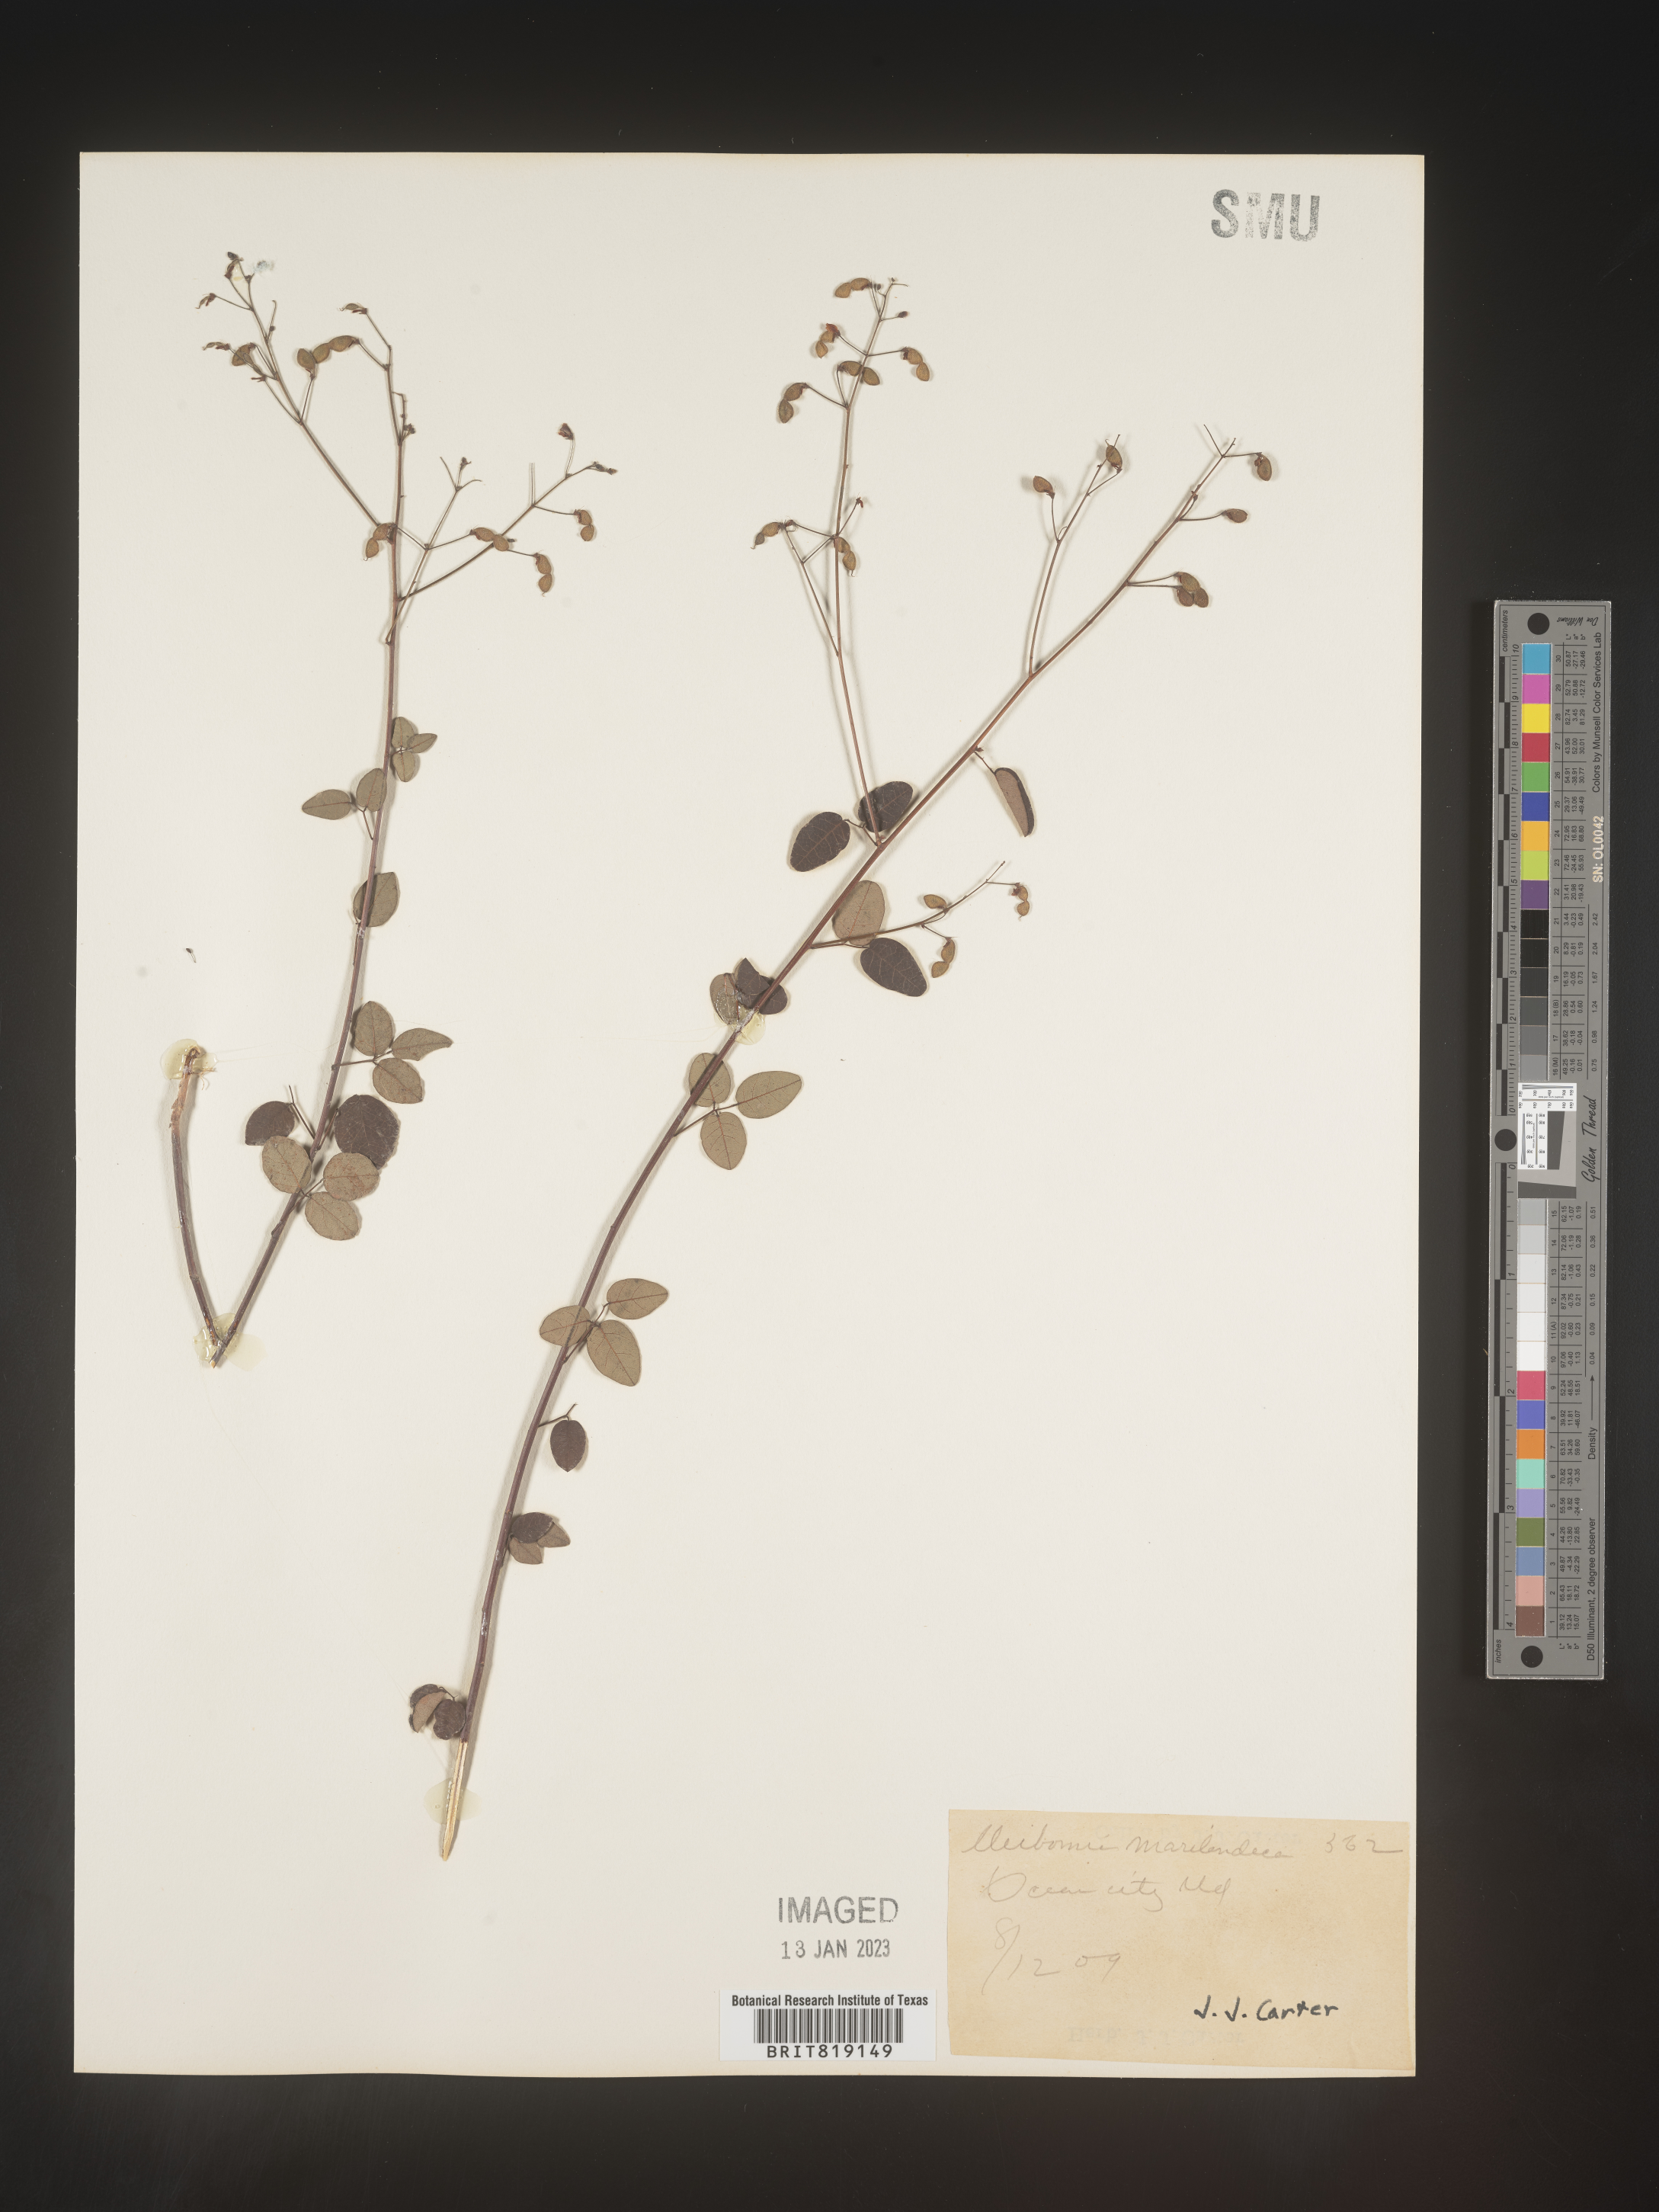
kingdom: Plantae
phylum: Tracheophyta
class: Magnoliopsida
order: Fabales
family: Fabaceae
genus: Desmodium
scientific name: Desmodium marilandicum
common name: Maryland tick-trefoil
